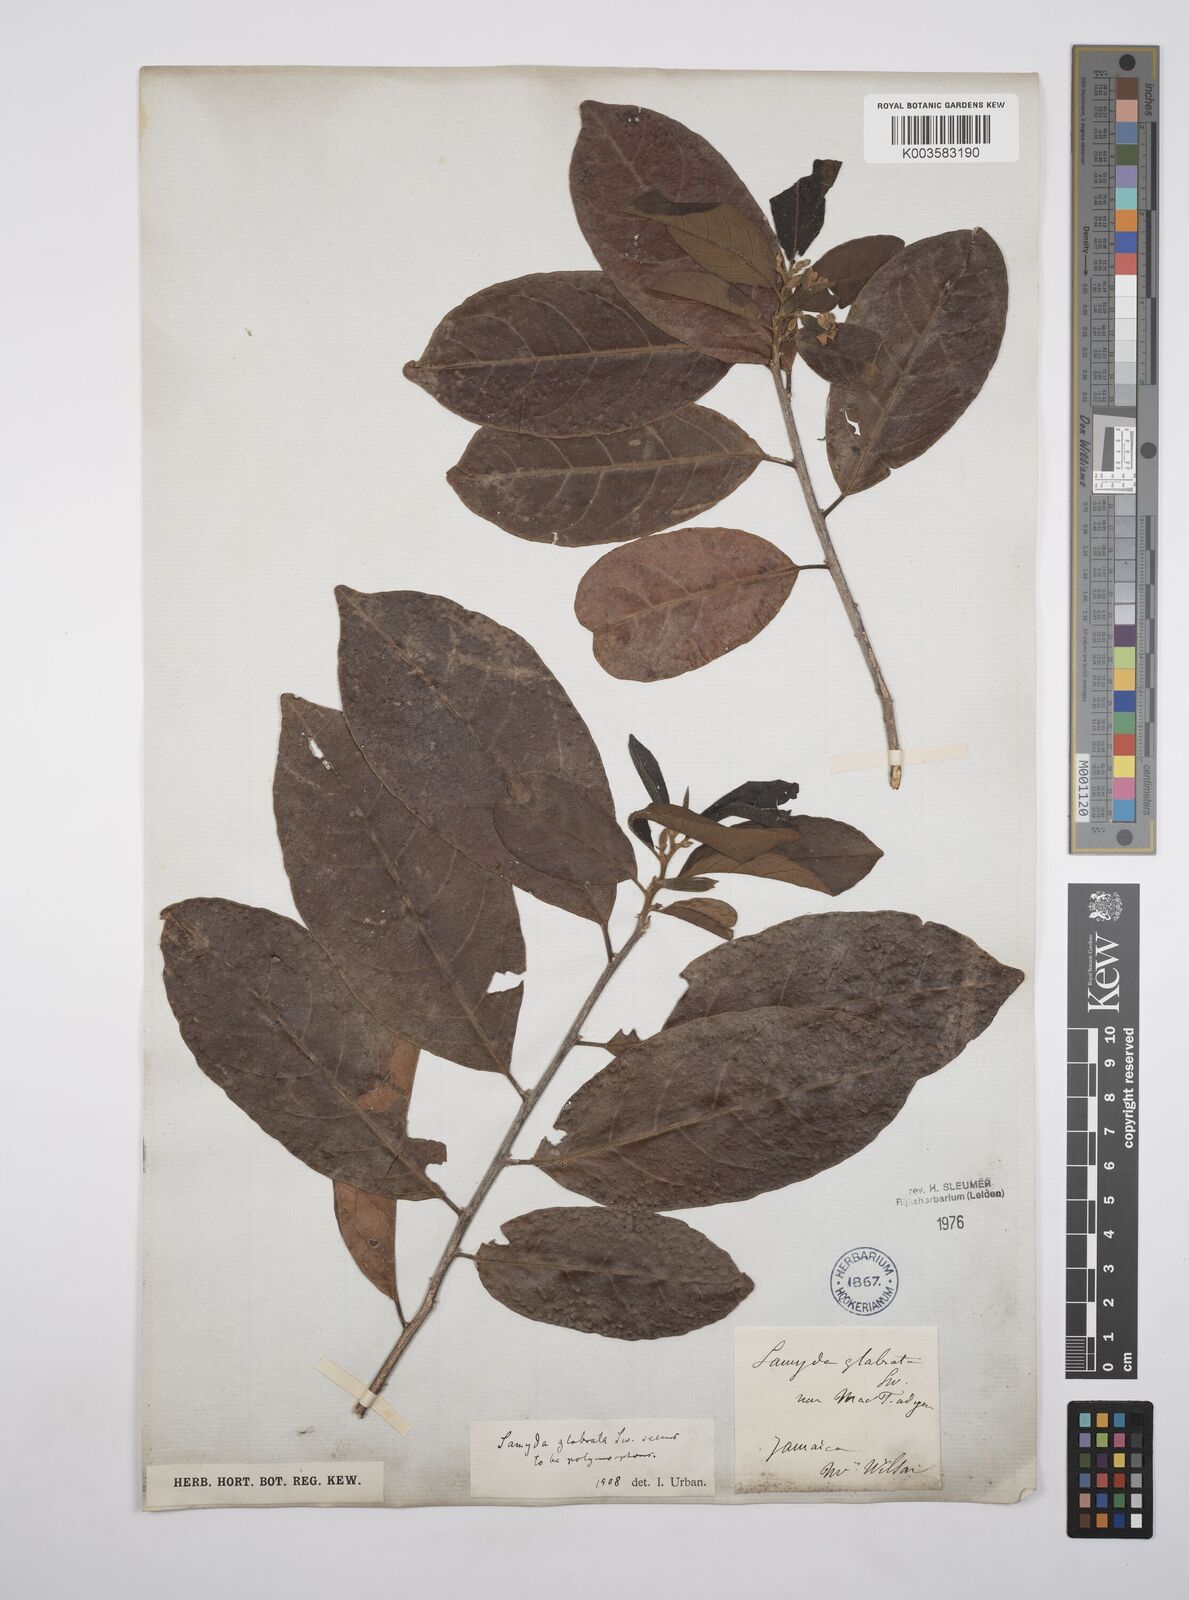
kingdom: Plantae
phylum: Tracheophyta
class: Magnoliopsida
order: Malpighiales
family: Salicaceae
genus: Casearia
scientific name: Casearia kigeri
